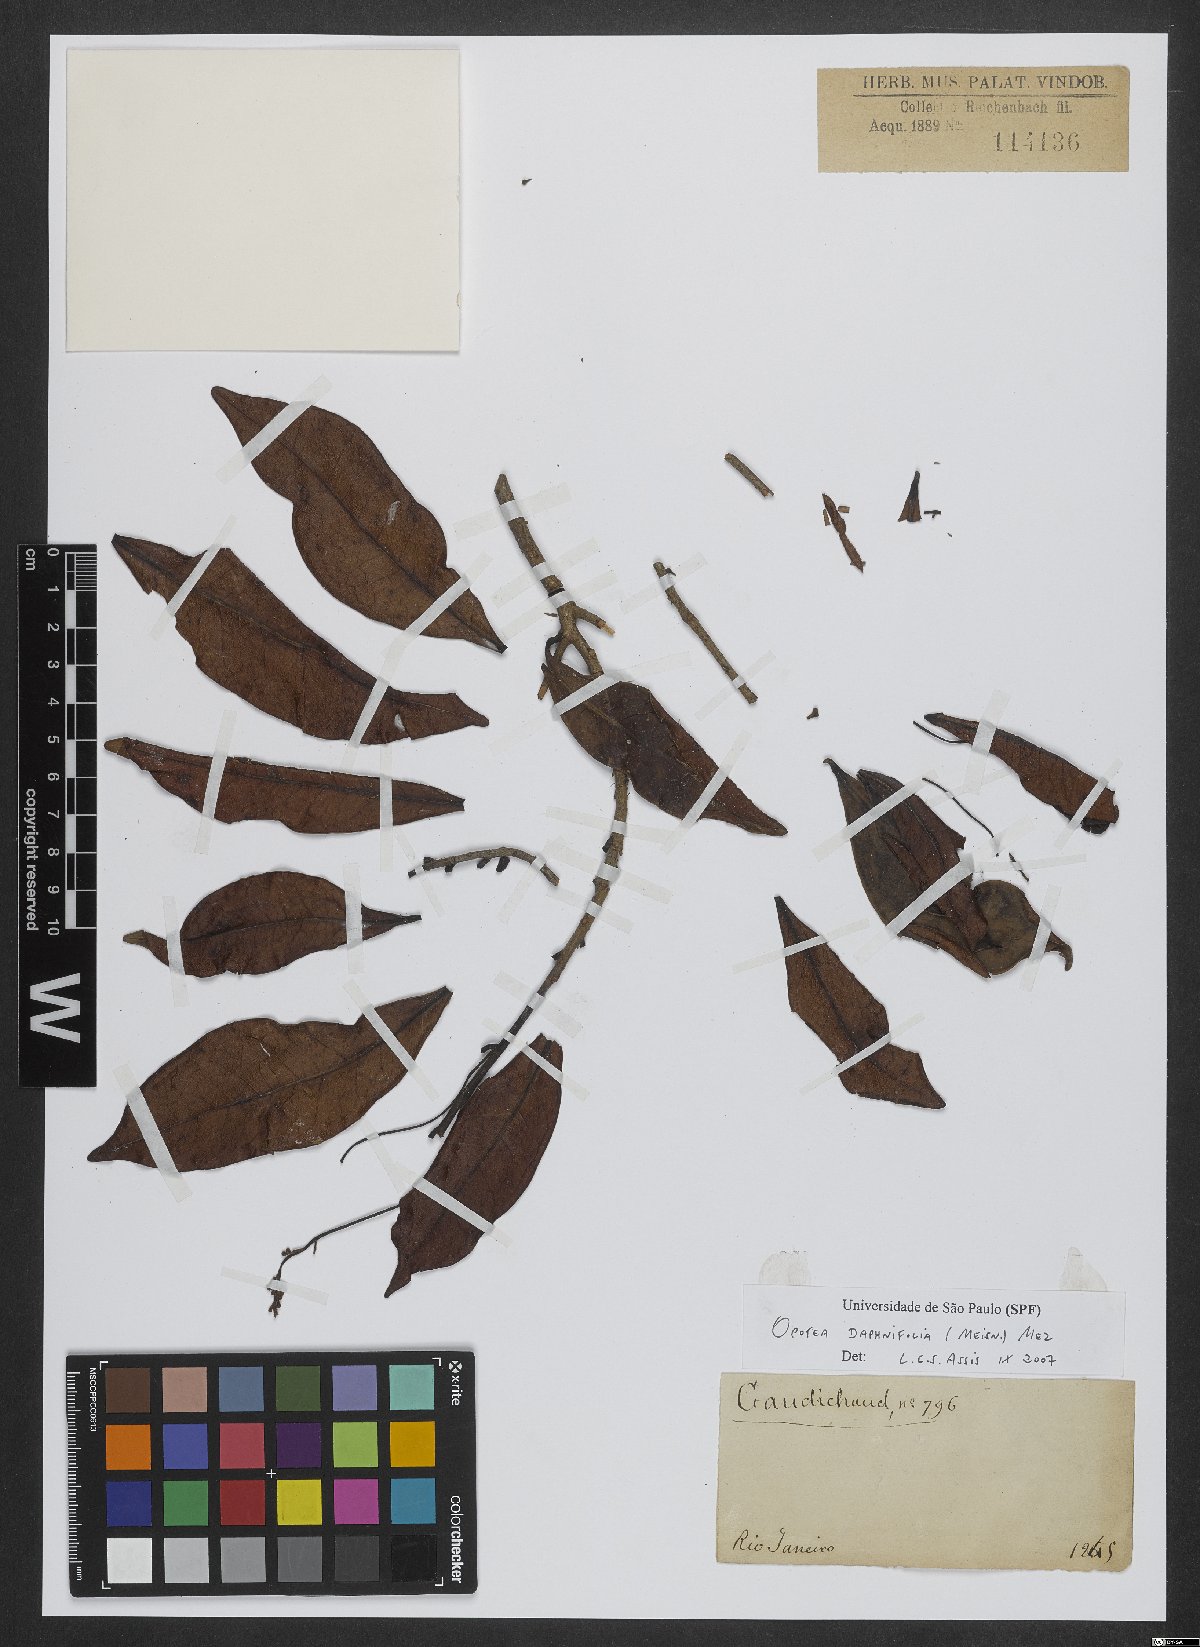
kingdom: Plantae
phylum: Tracheophyta
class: Magnoliopsida
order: Laurales
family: Lauraceae
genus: Ocotea
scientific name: Ocotea daphnifolia
